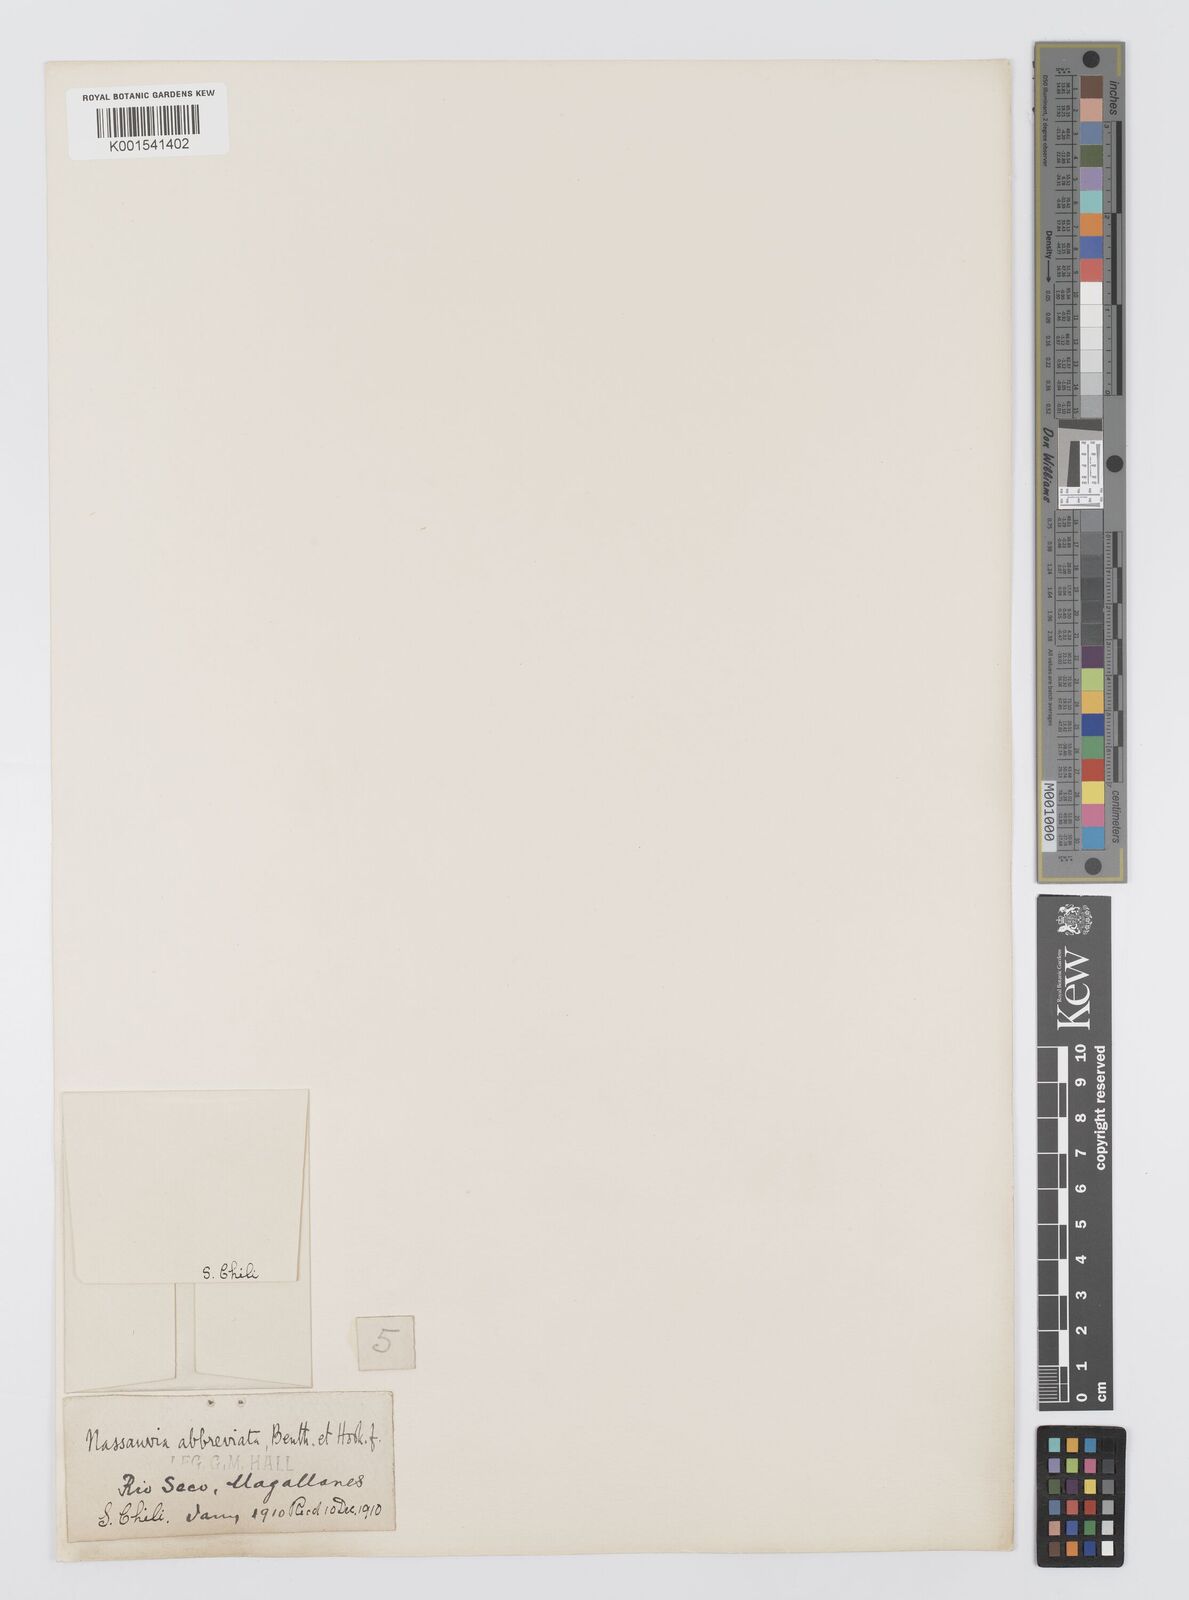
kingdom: Plantae
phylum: Tracheophyta
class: Magnoliopsida
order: Asterales
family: Asteraceae
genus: Nassauvia
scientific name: Nassauvia aculeata
